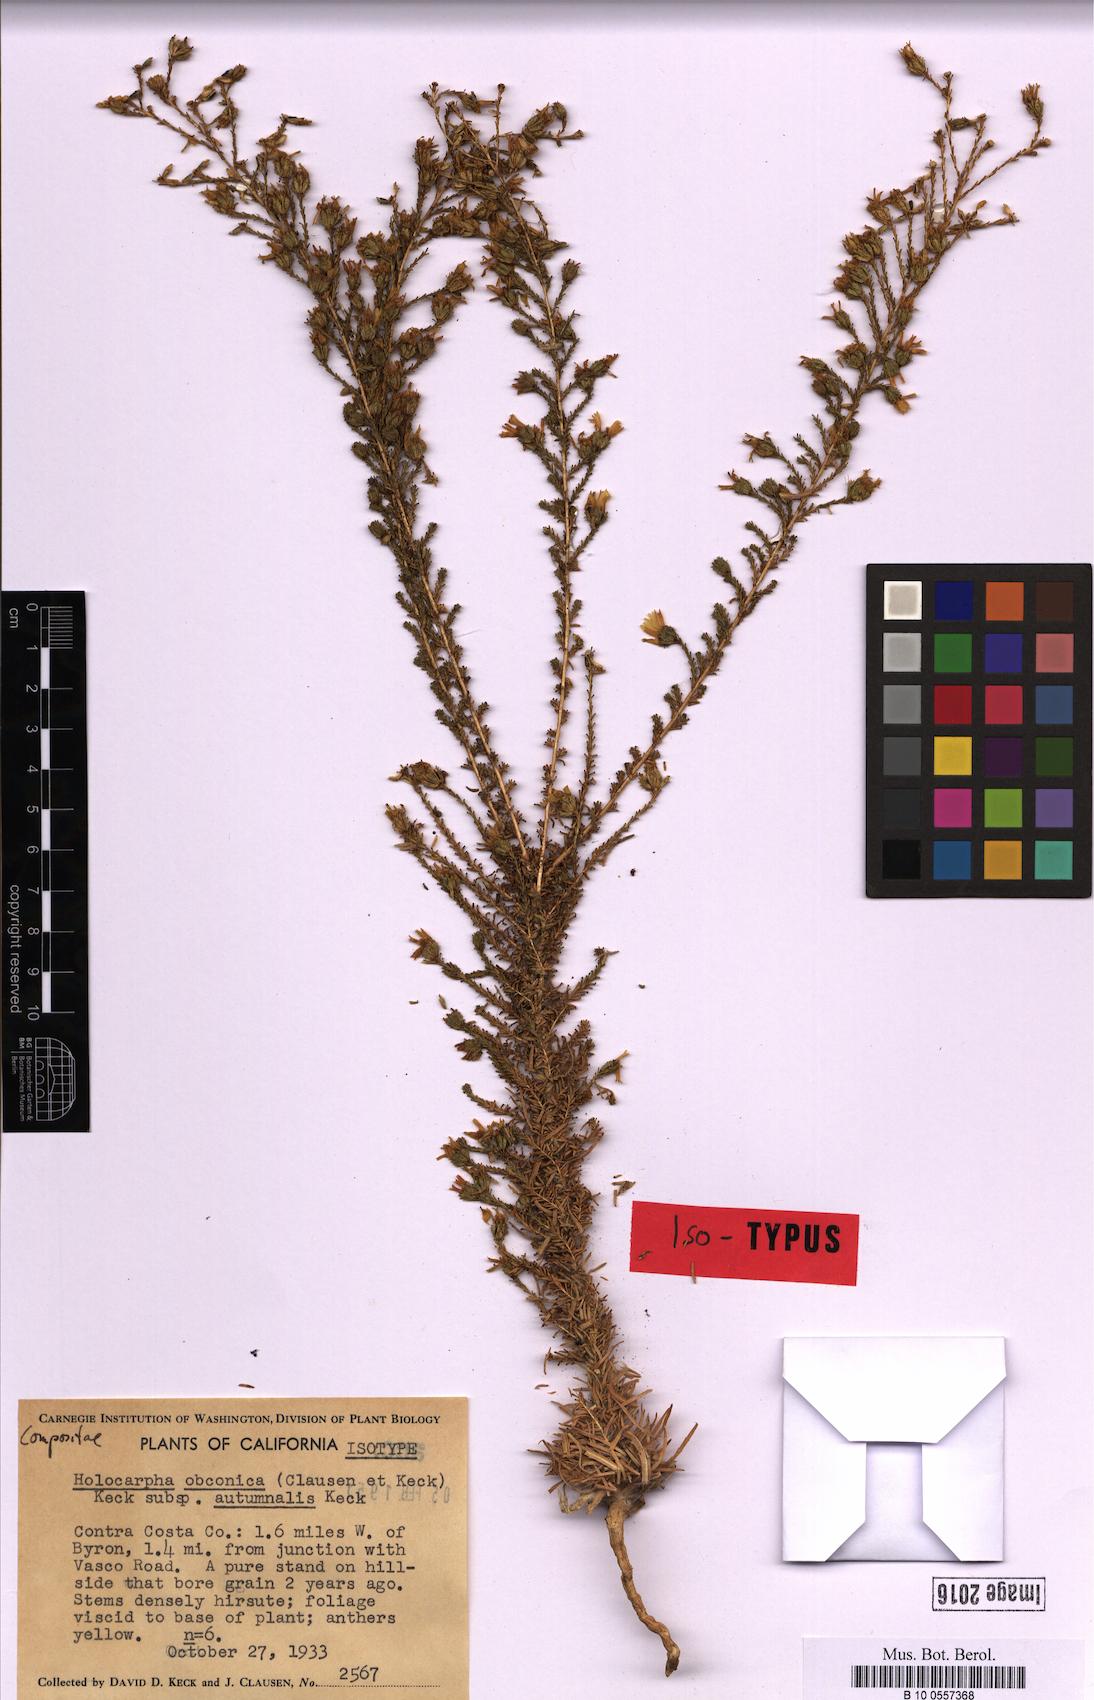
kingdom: Plantae
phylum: Tracheophyta
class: Magnoliopsida
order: Asterales
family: Asteraceae
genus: Holocarpha
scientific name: Holocarpha obconica
